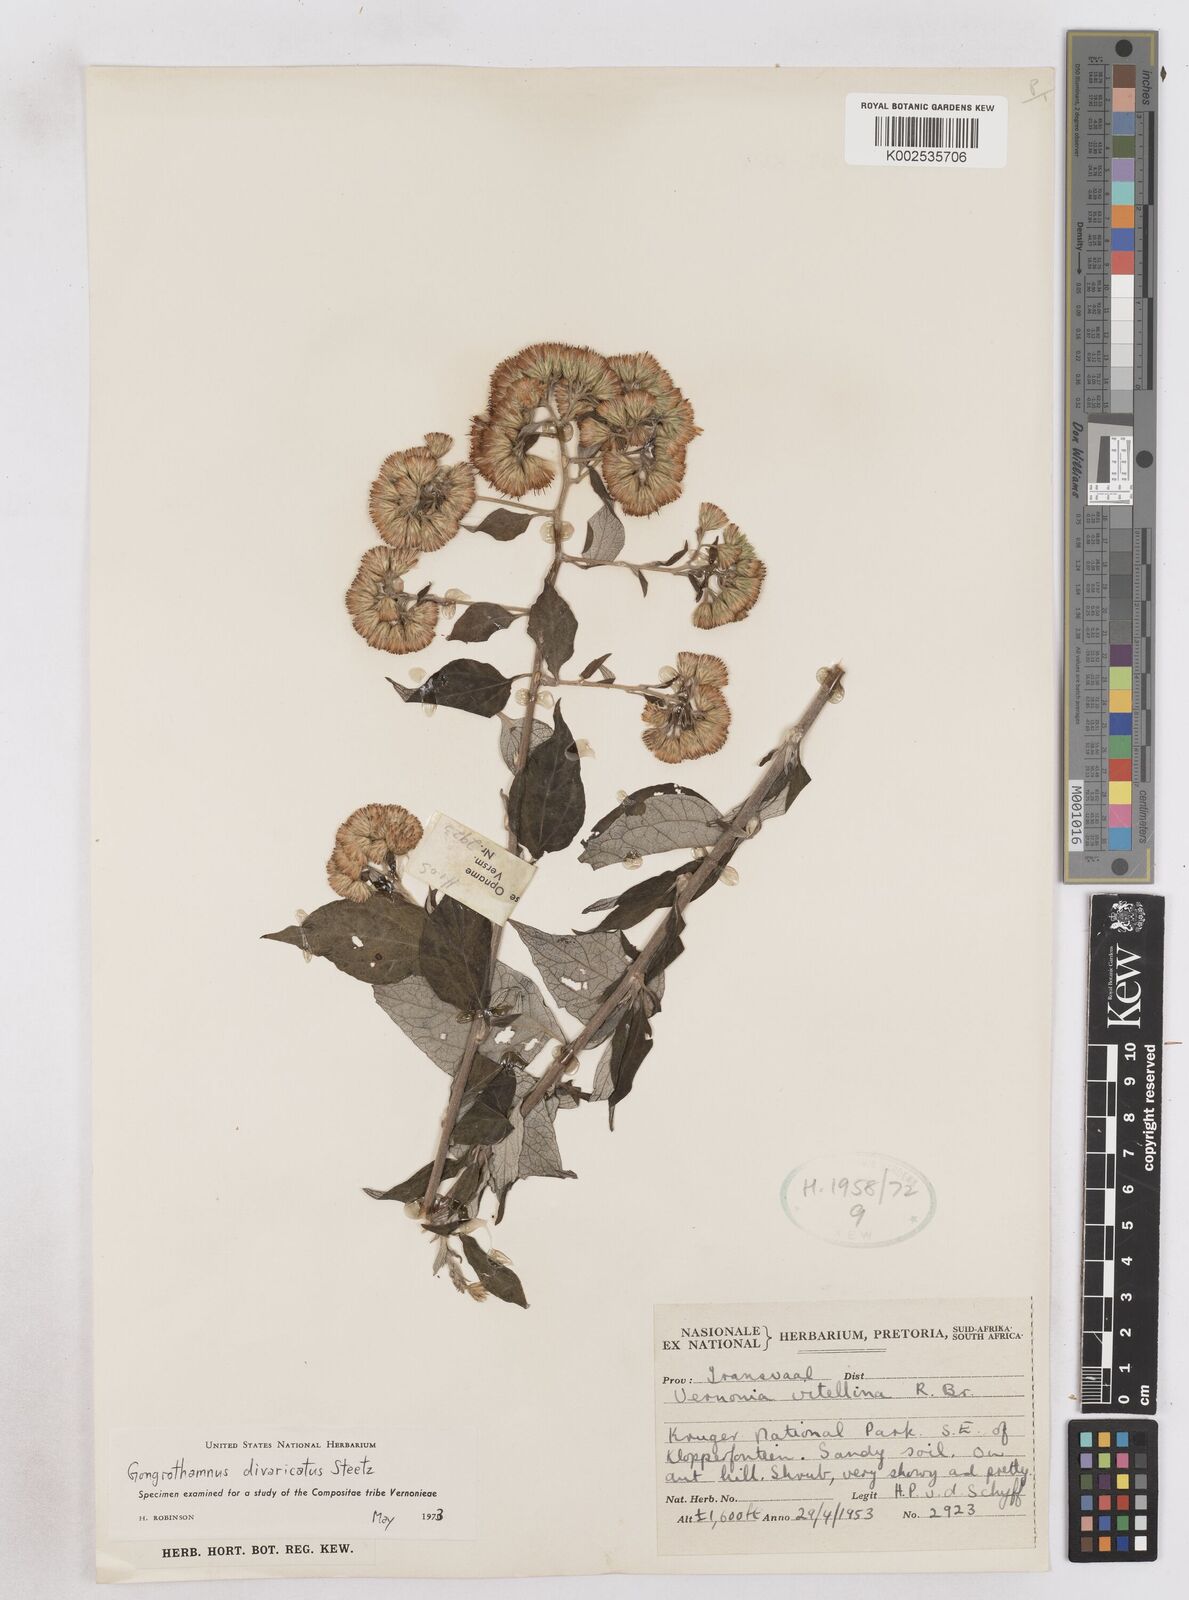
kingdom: Plantae
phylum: Tracheophyta
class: Magnoliopsida
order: Asterales
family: Asteraceae
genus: Distephanus
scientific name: Distephanus
